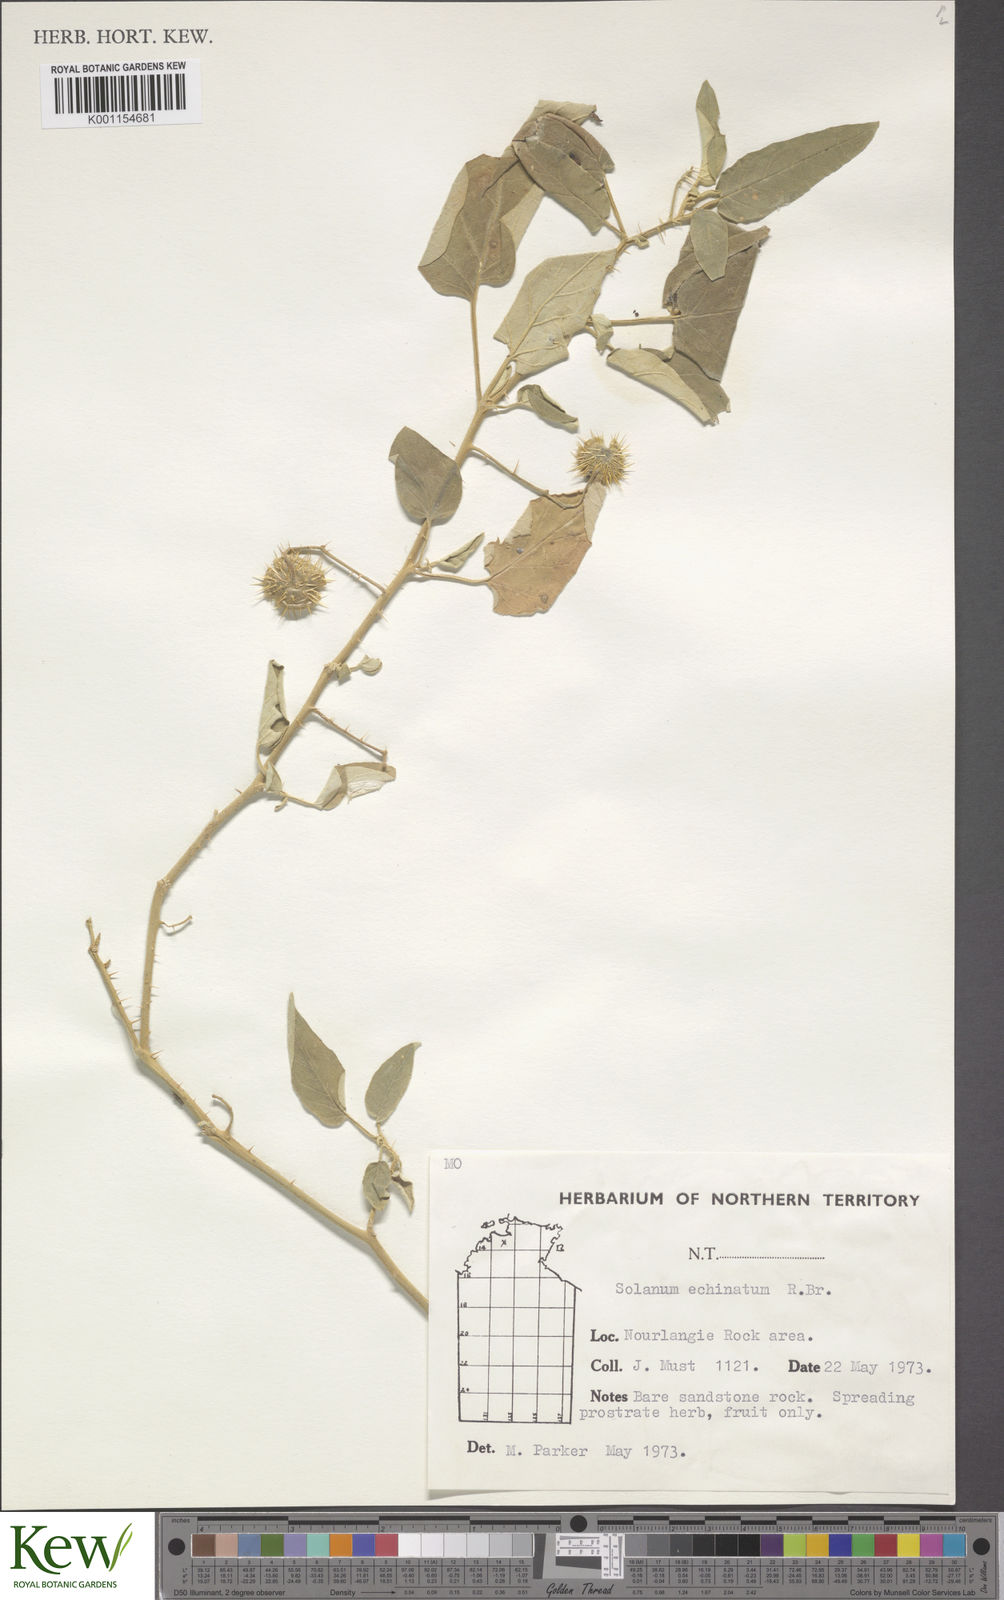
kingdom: Plantae
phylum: Tracheophyta
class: Magnoliopsida
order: Solanales
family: Solanaceae
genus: Solanum
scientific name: Solanum echinatum
